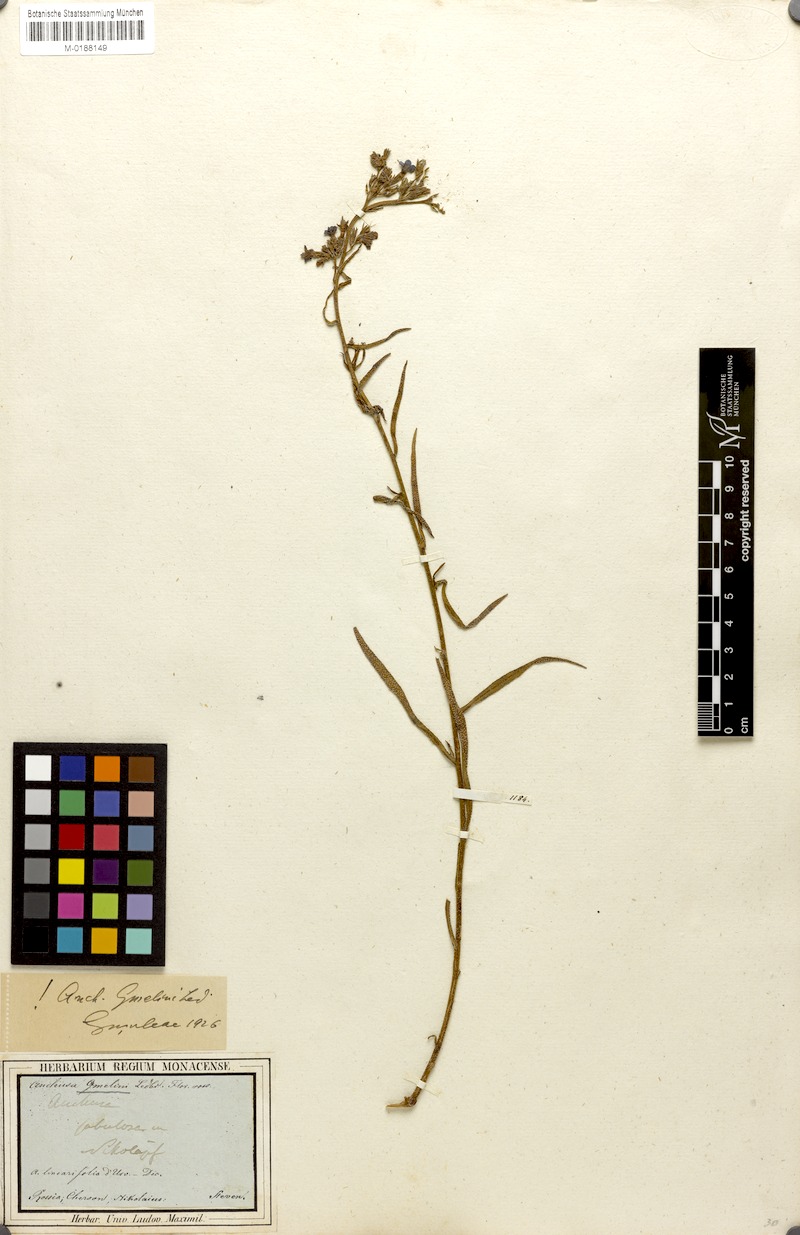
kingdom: Plantae
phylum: Tracheophyta
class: Magnoliopsida
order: Boraginales
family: Boraginaceae
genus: Anchusa
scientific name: Anchusa gmelinii
